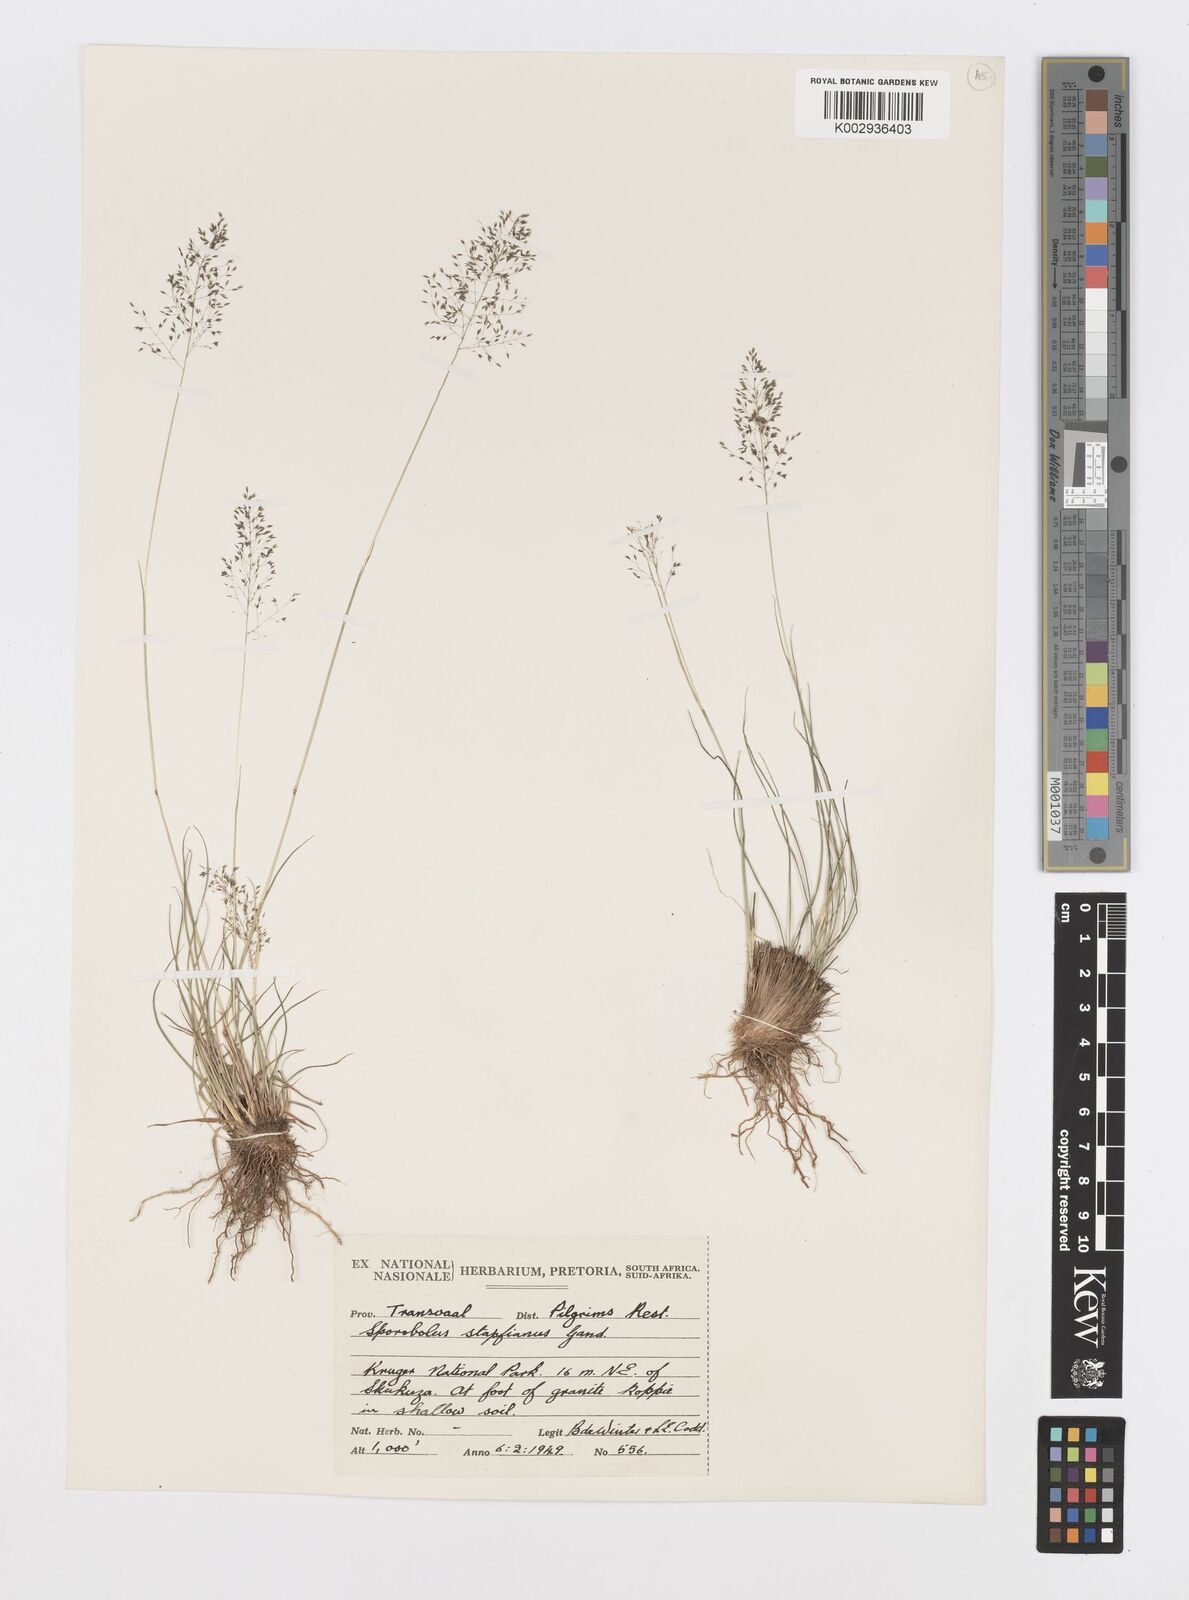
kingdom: Plantae
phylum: Tracheophyta
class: Liliopsida
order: Poales
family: Poaceae
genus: Sporobolus
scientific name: Sporobolus stapfianus
